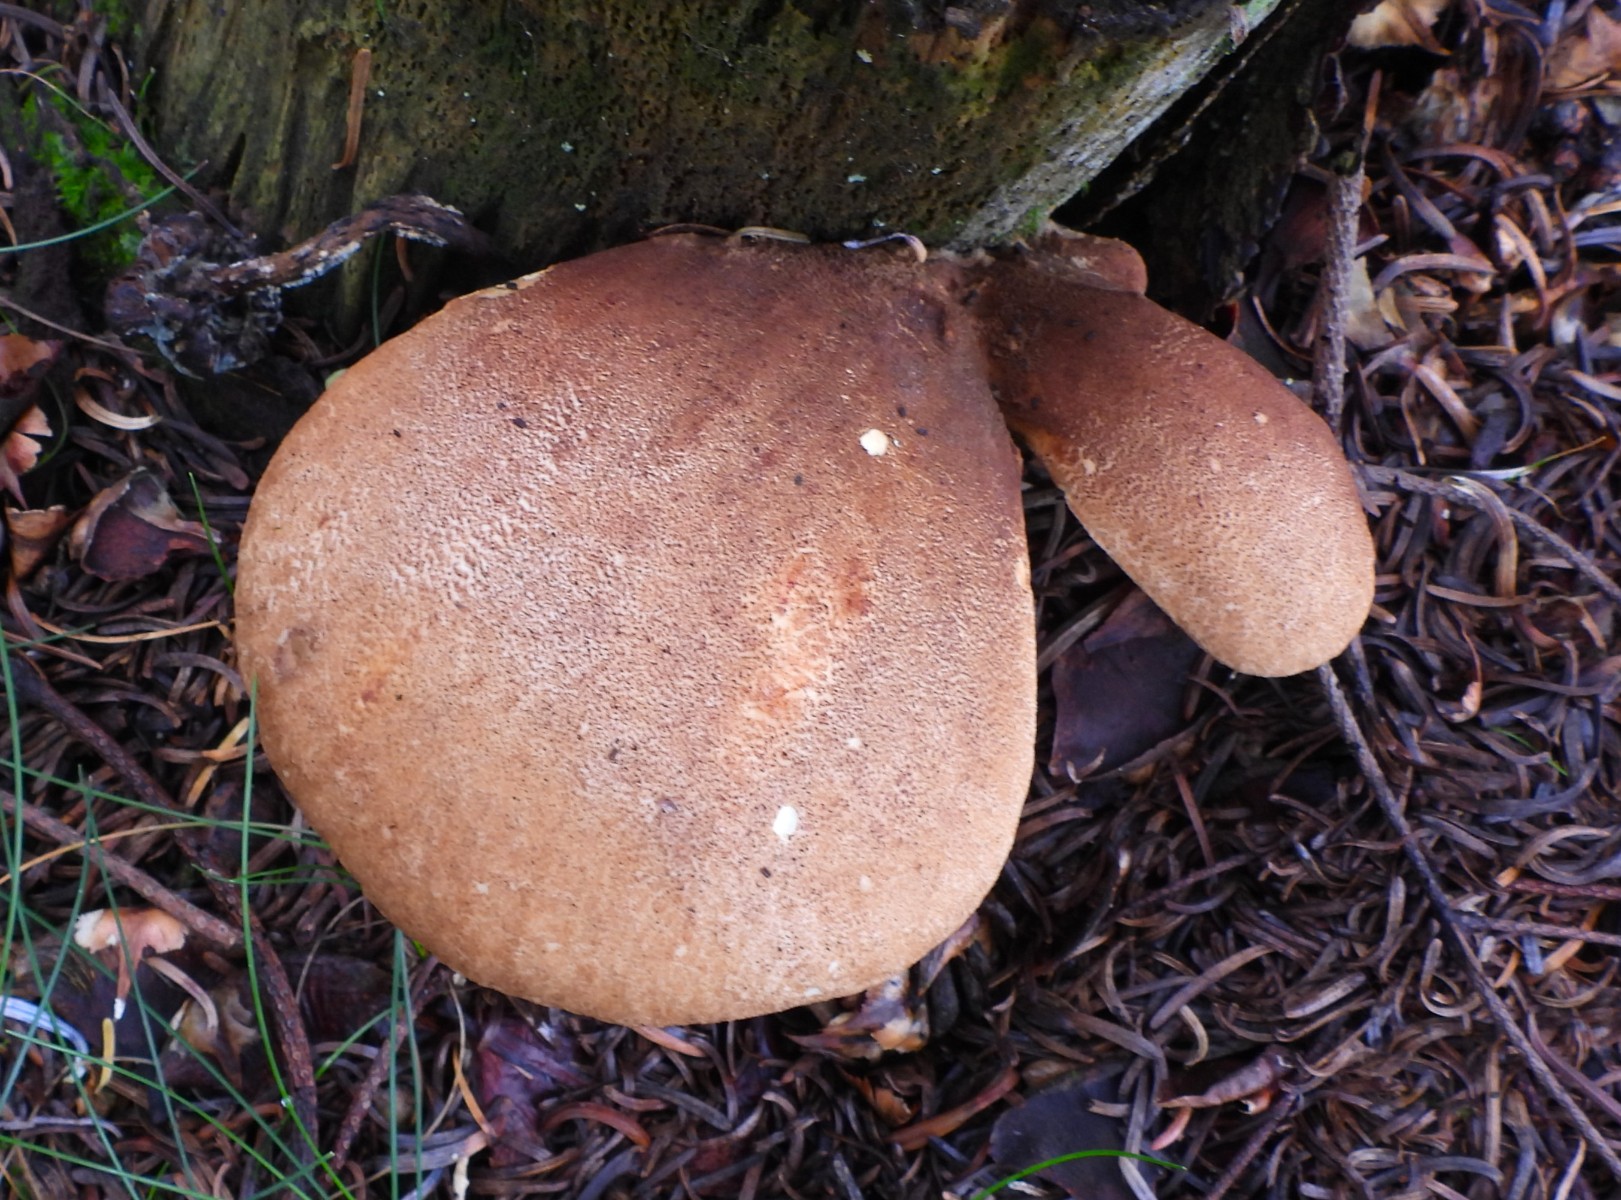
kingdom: Fungi
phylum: Basidiomycota
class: Agaricomycetes
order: Boletales
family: Tapinellaceae
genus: Tapinella
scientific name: Tapinella atrotomentosa
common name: sortfiltet viftesvamp
